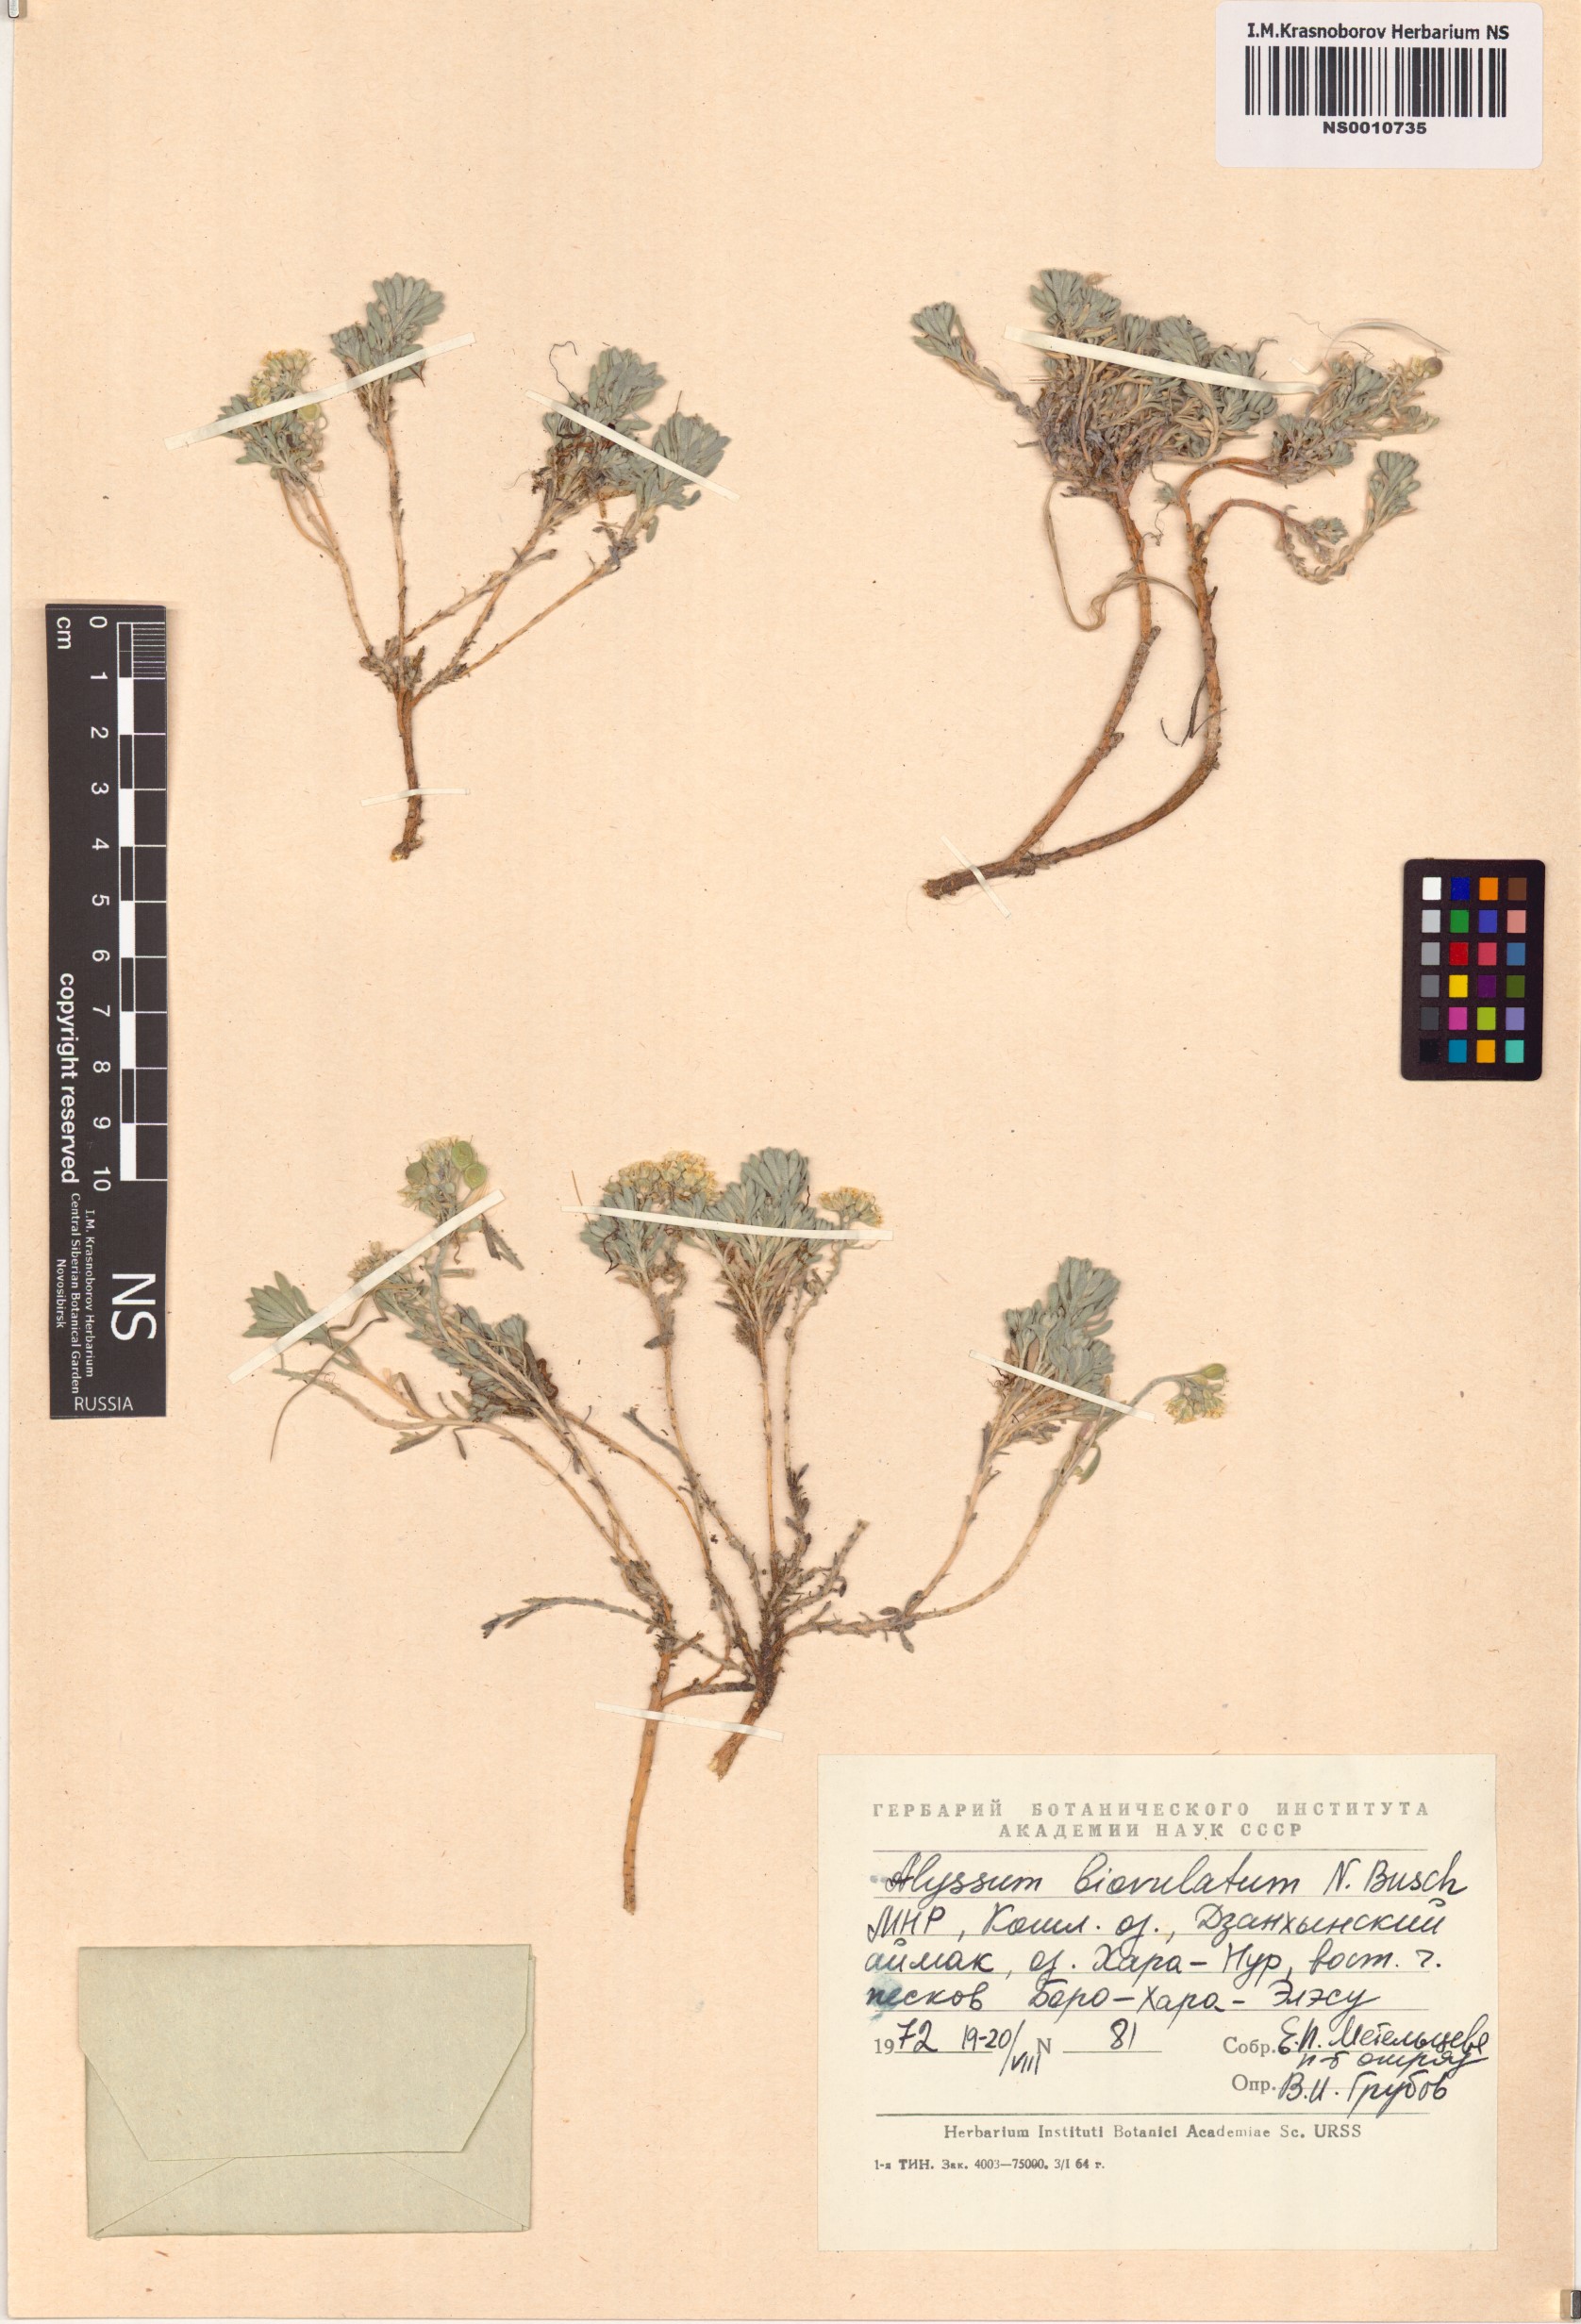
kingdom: Plantae
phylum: Tracheophyta
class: Magnoliopsida
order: Brassicales
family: Brassicaceae
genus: Odontarrhena
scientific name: Odontarrhena obovata
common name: American alyssum
